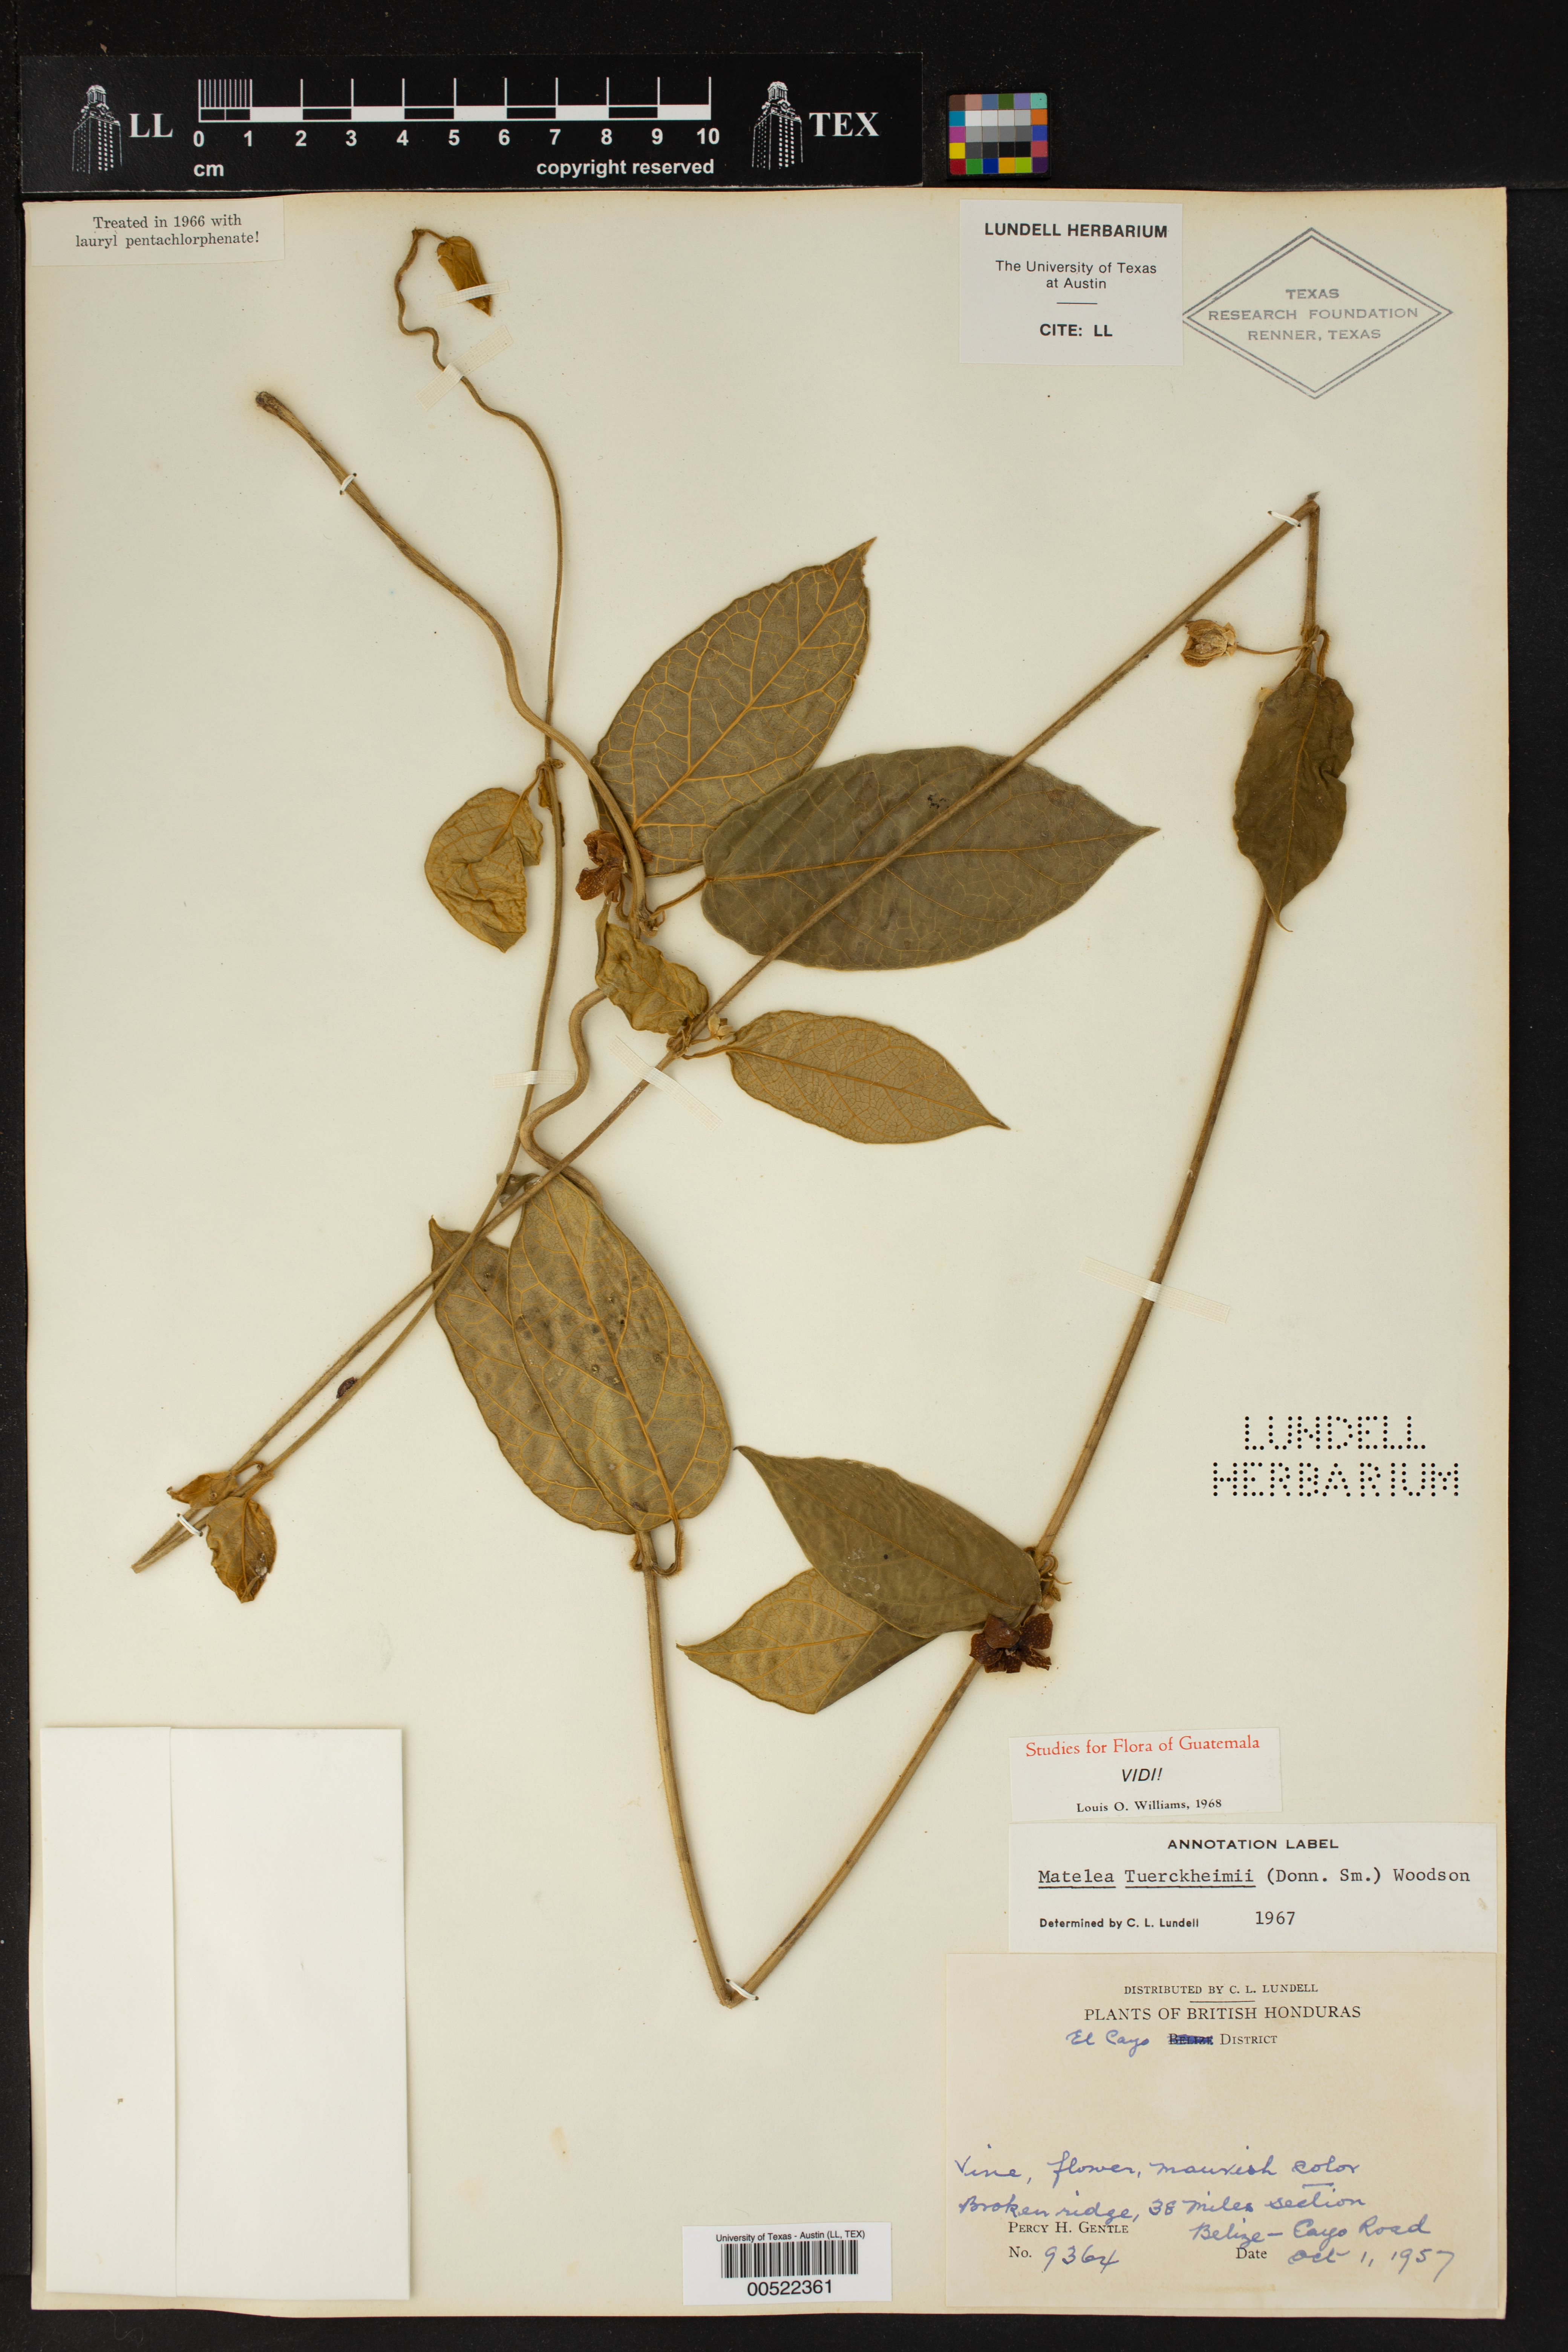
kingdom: Plantae
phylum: Tracheophyta
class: Magnoliopsida
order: Gentianales
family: Apocynaceae
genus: Matelea
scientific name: Matelea tuerckheimii
